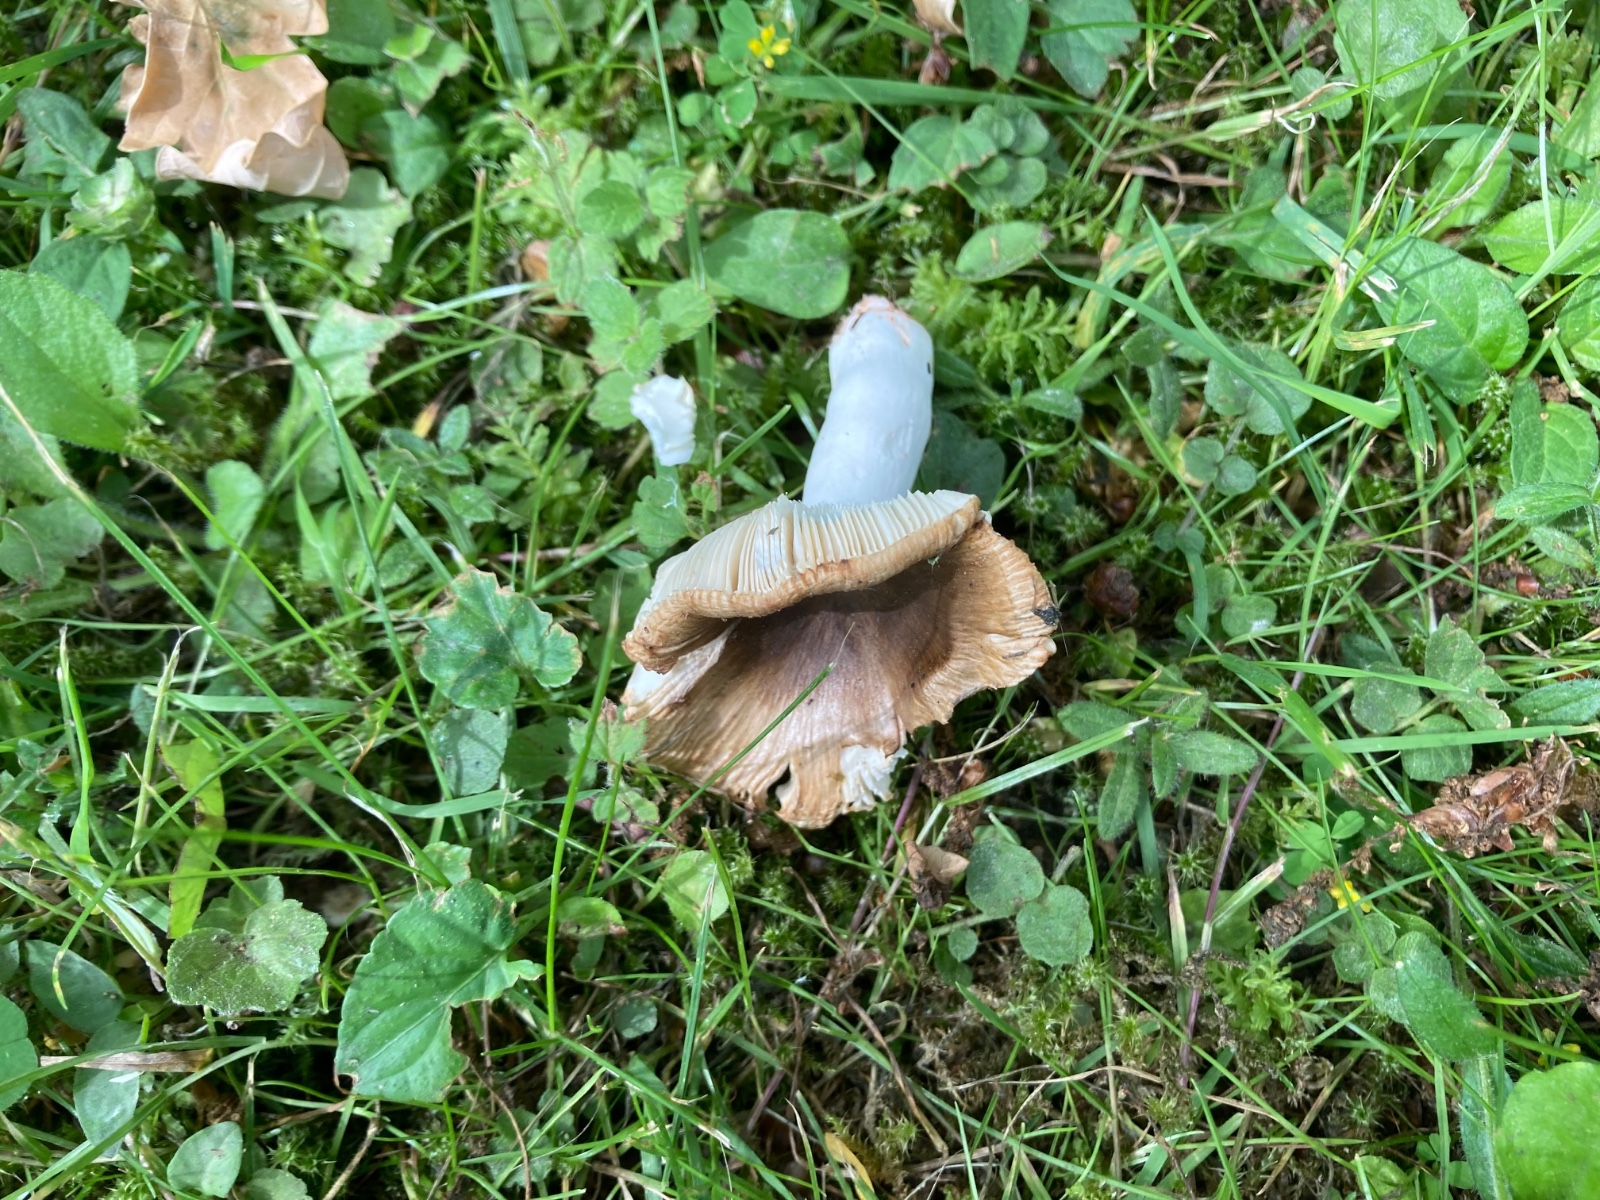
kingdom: Fungi
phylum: Basidiomycota
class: Agaricomycetes
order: Russulales
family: Russulaceae
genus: Russula
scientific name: Russula recondita
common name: mild kam-skørhat
